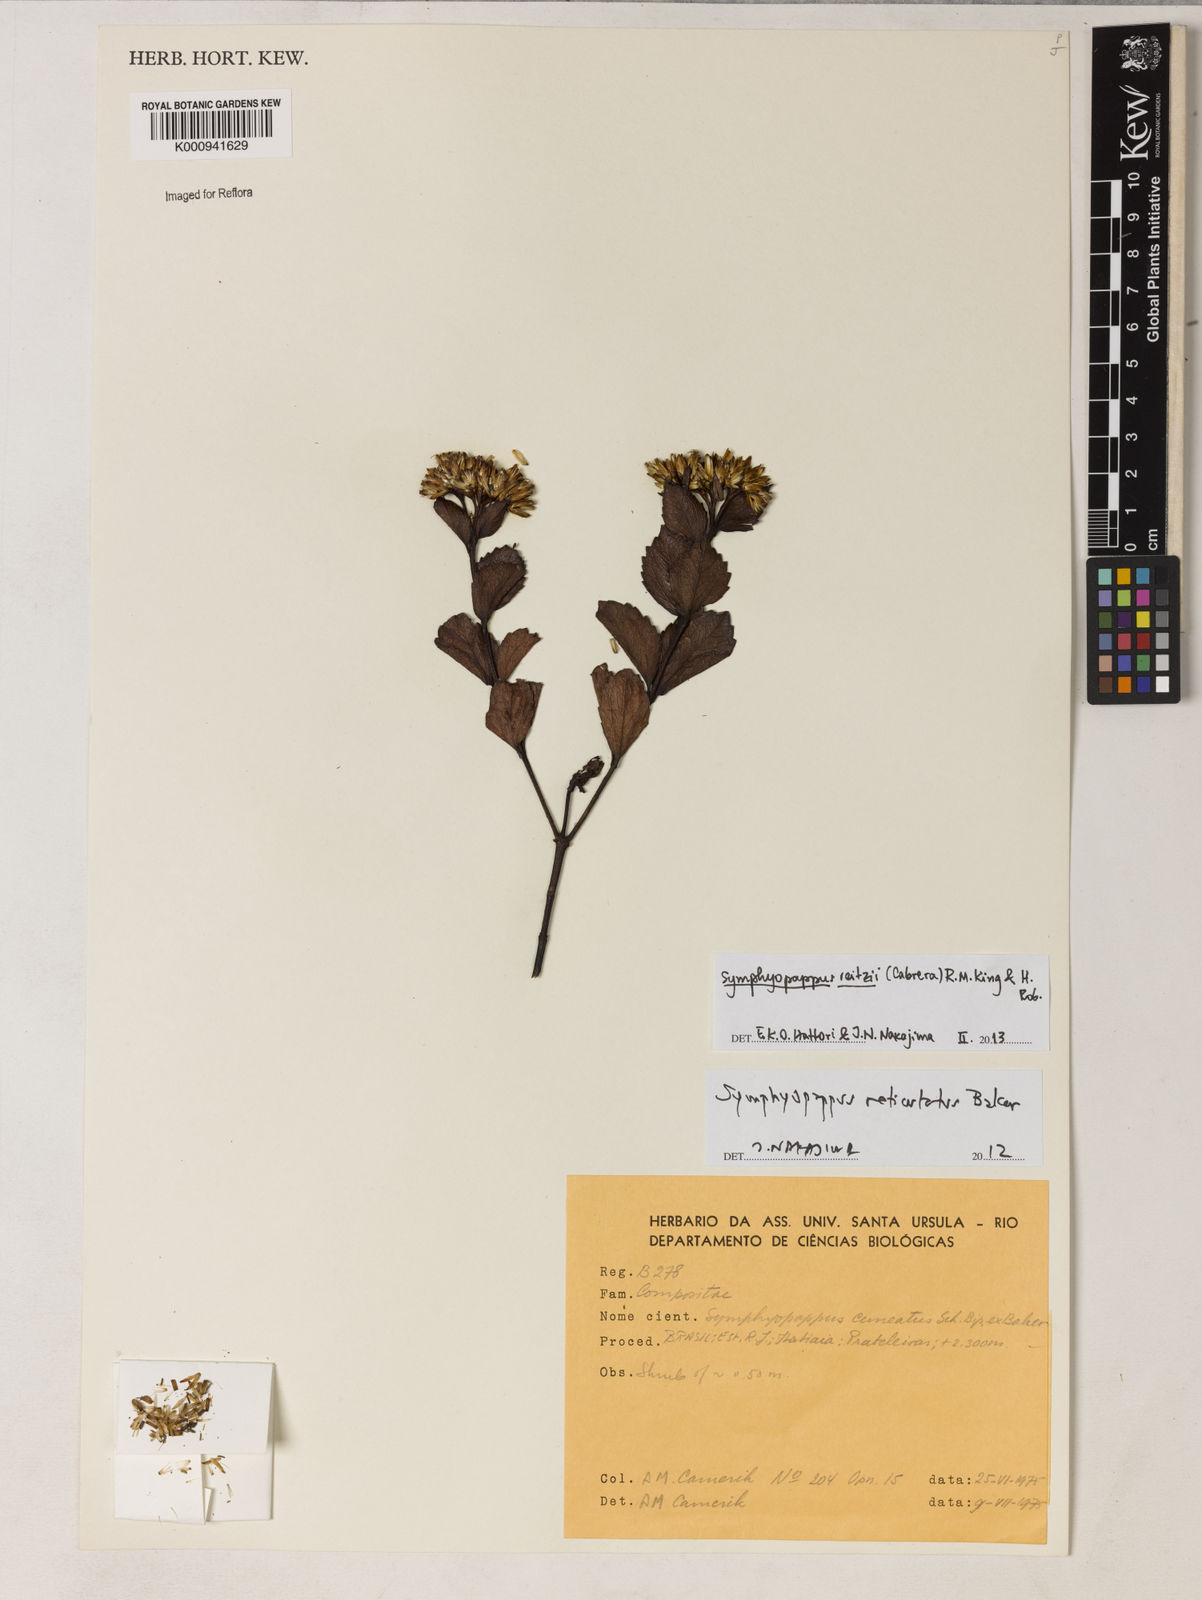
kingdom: Plantae
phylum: Tracheophyta
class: Magnoliopsida
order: Asterales
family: Asteraceae
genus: Symphyopappus
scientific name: Symphyopappus reitzii
